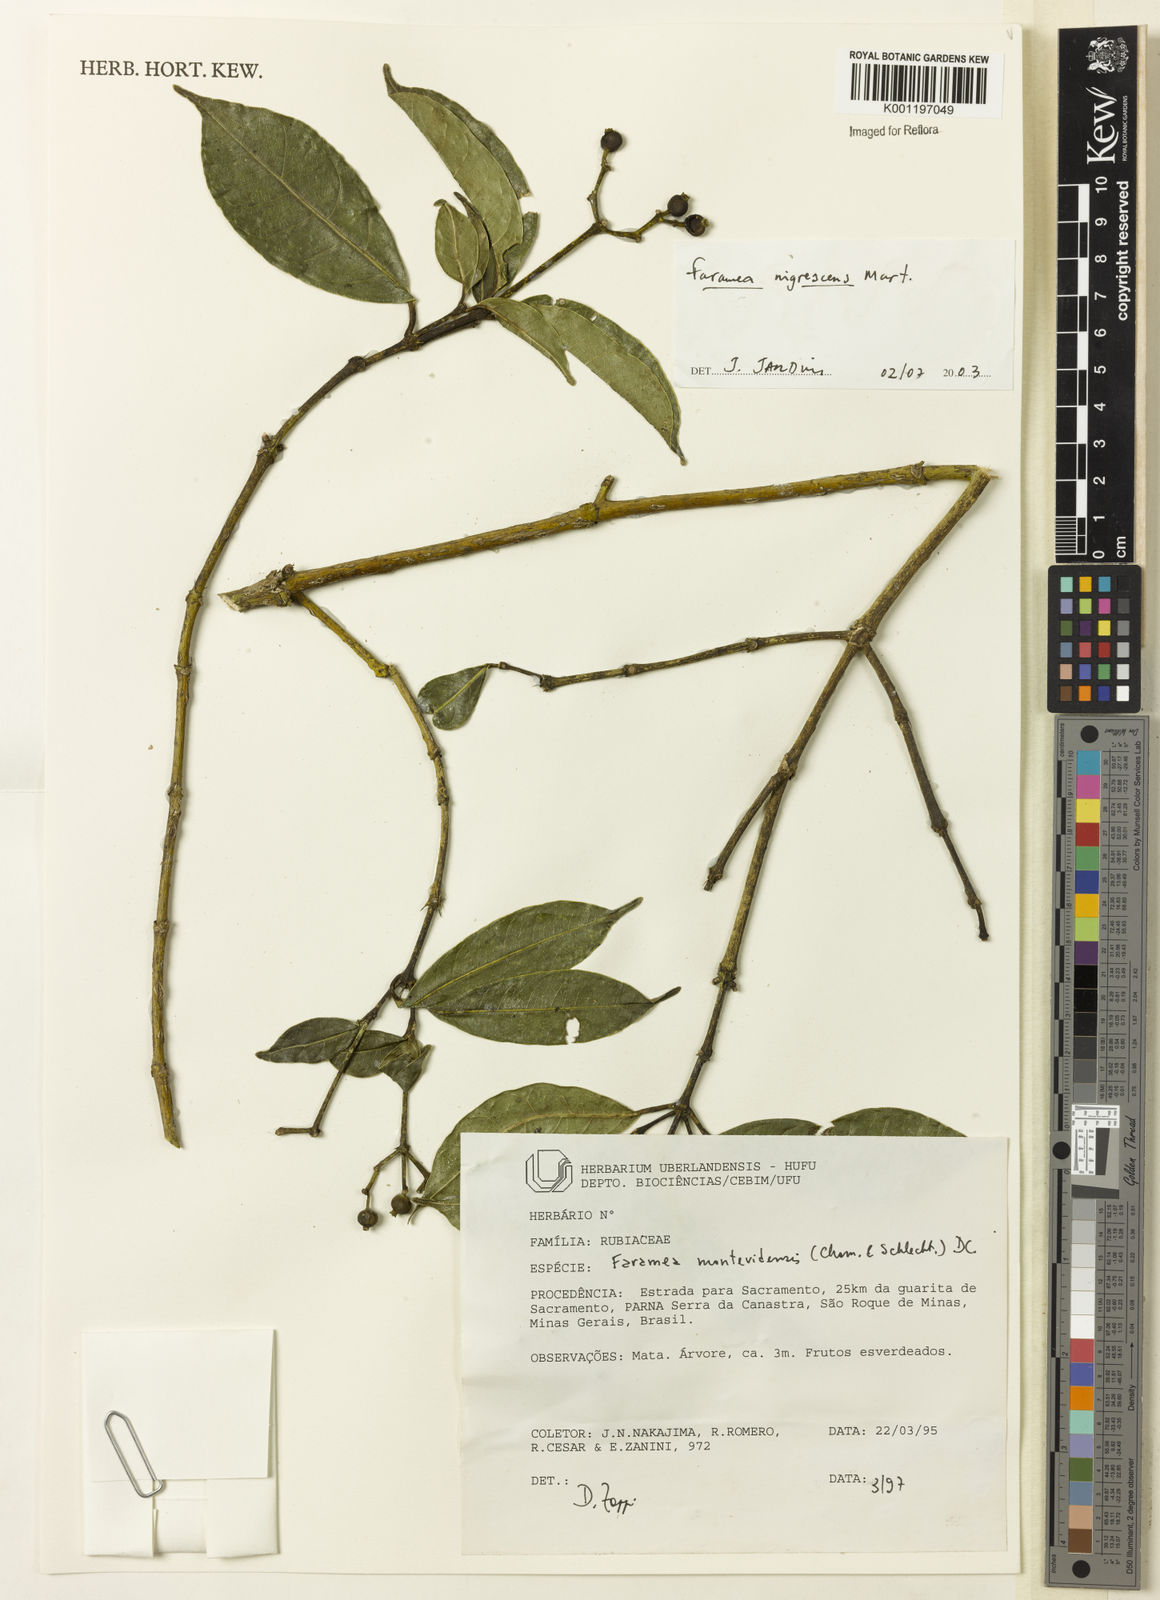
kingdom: Plantae
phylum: Tracheophyta
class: Magnoliopsida
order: Gentianales
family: Rubiaceae
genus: Faramea
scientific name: Faramea nigrescens
